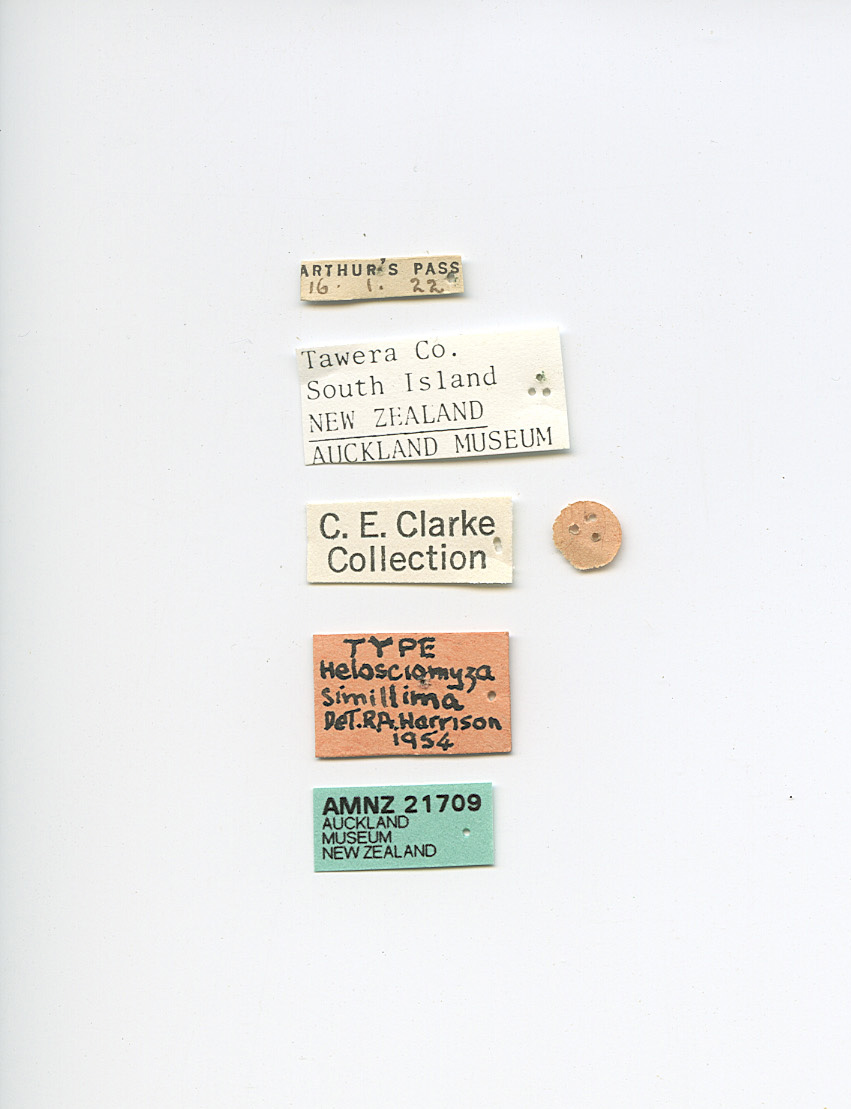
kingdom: Animalia
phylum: Arthropoda
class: Insecta
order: Diptera
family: Helosciomyzidae
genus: Napaeosciomyza
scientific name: Napaeosciomyza rara
